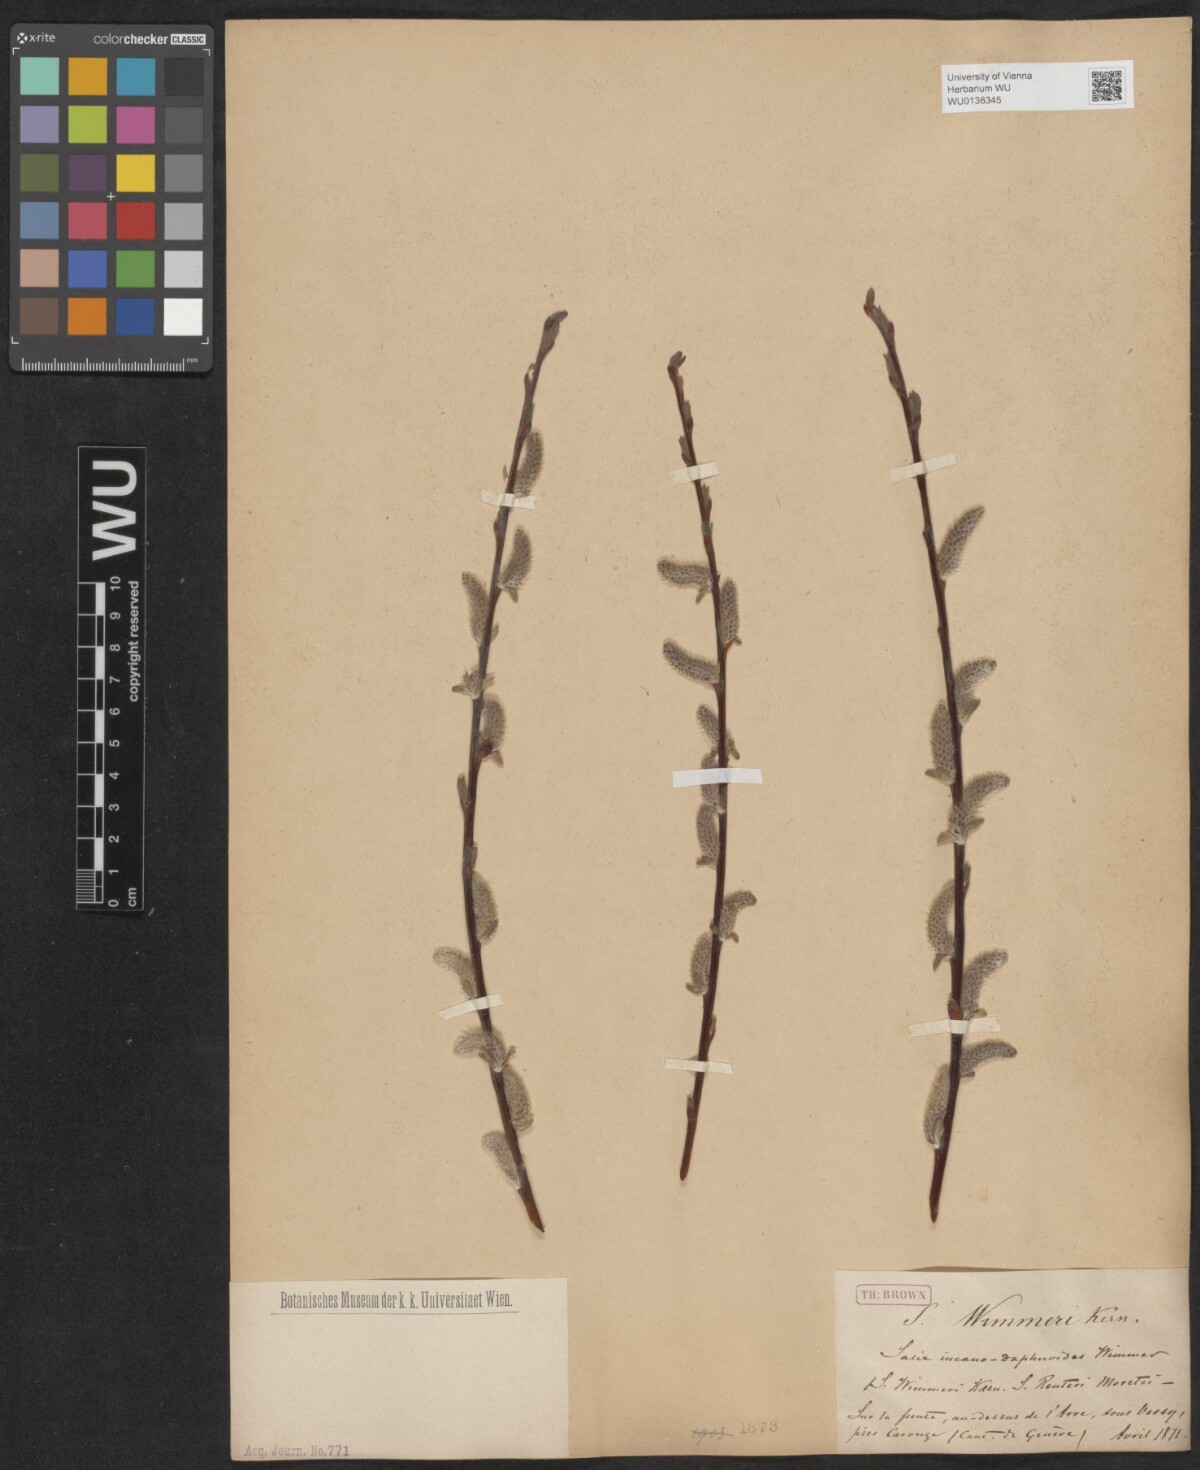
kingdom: Plantae
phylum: Tracheophyta
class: Magnoliopsida
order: Malpighiales
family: Salicaceae
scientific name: Salicaceae
